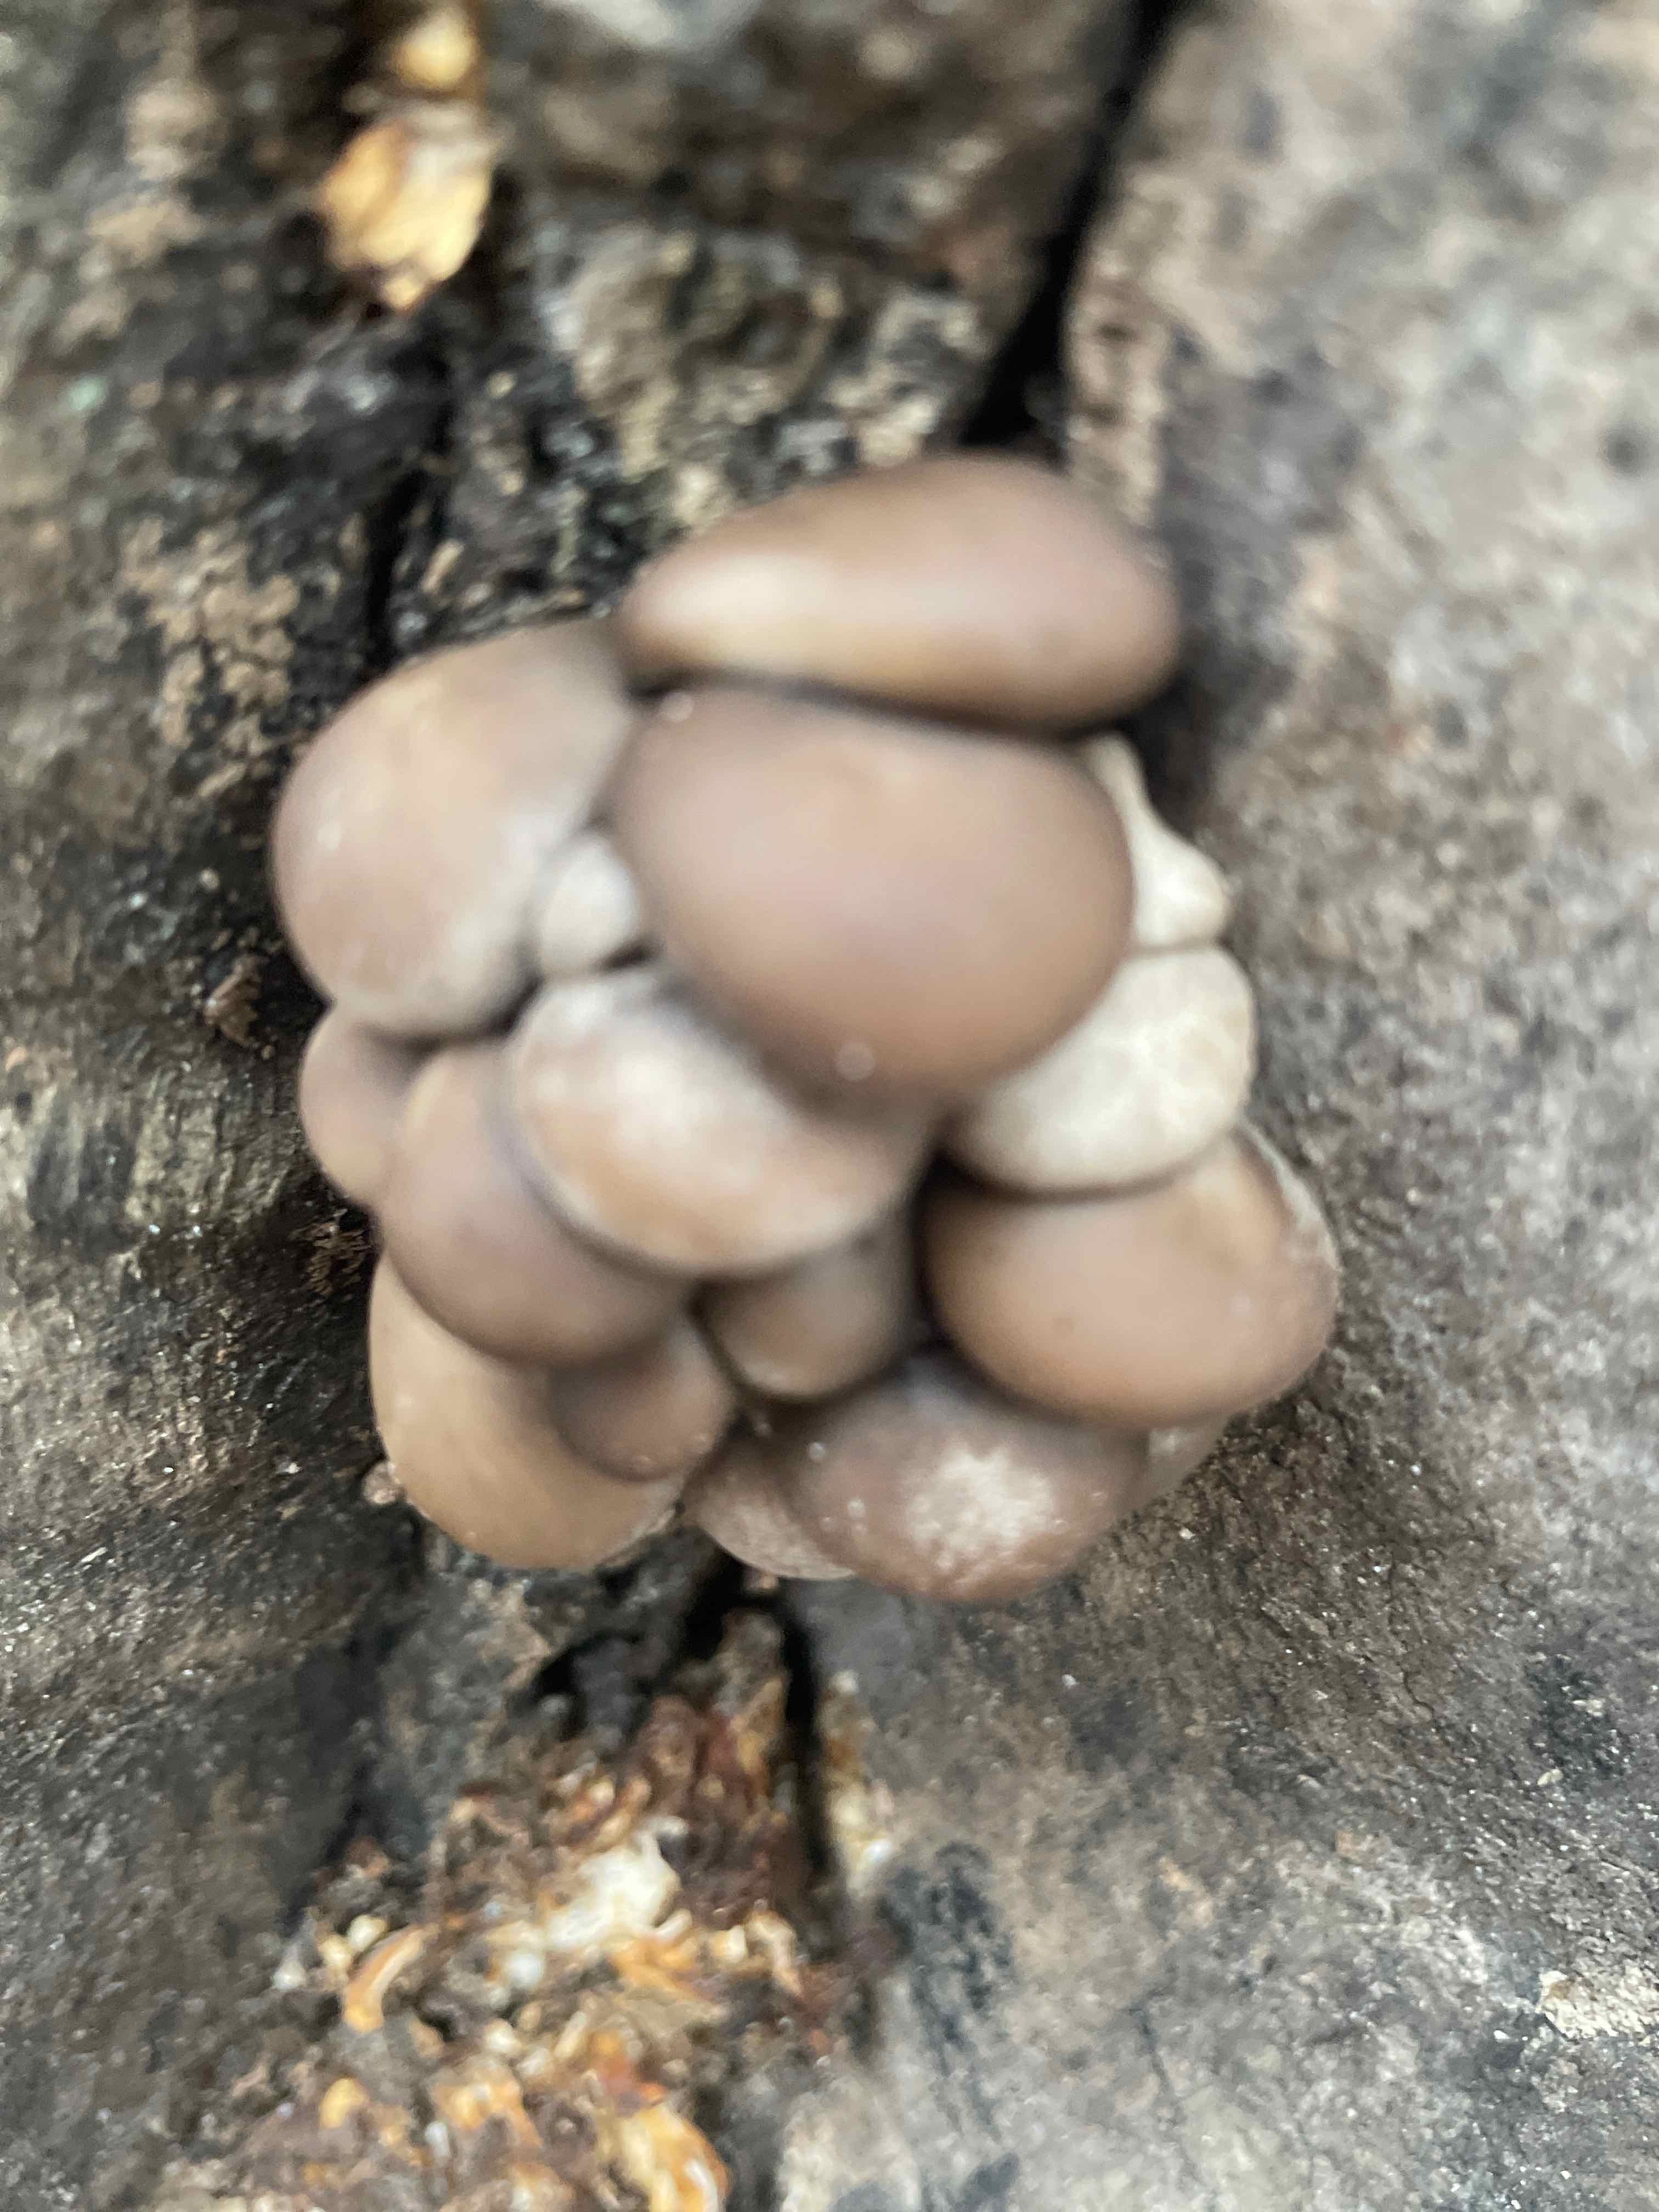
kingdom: Fungi
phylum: Basidiomycota
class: Agaricomycetes
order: Agaricales
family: Pleurotaceae
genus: Pleurotus
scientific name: Pleurotus ostreatus
